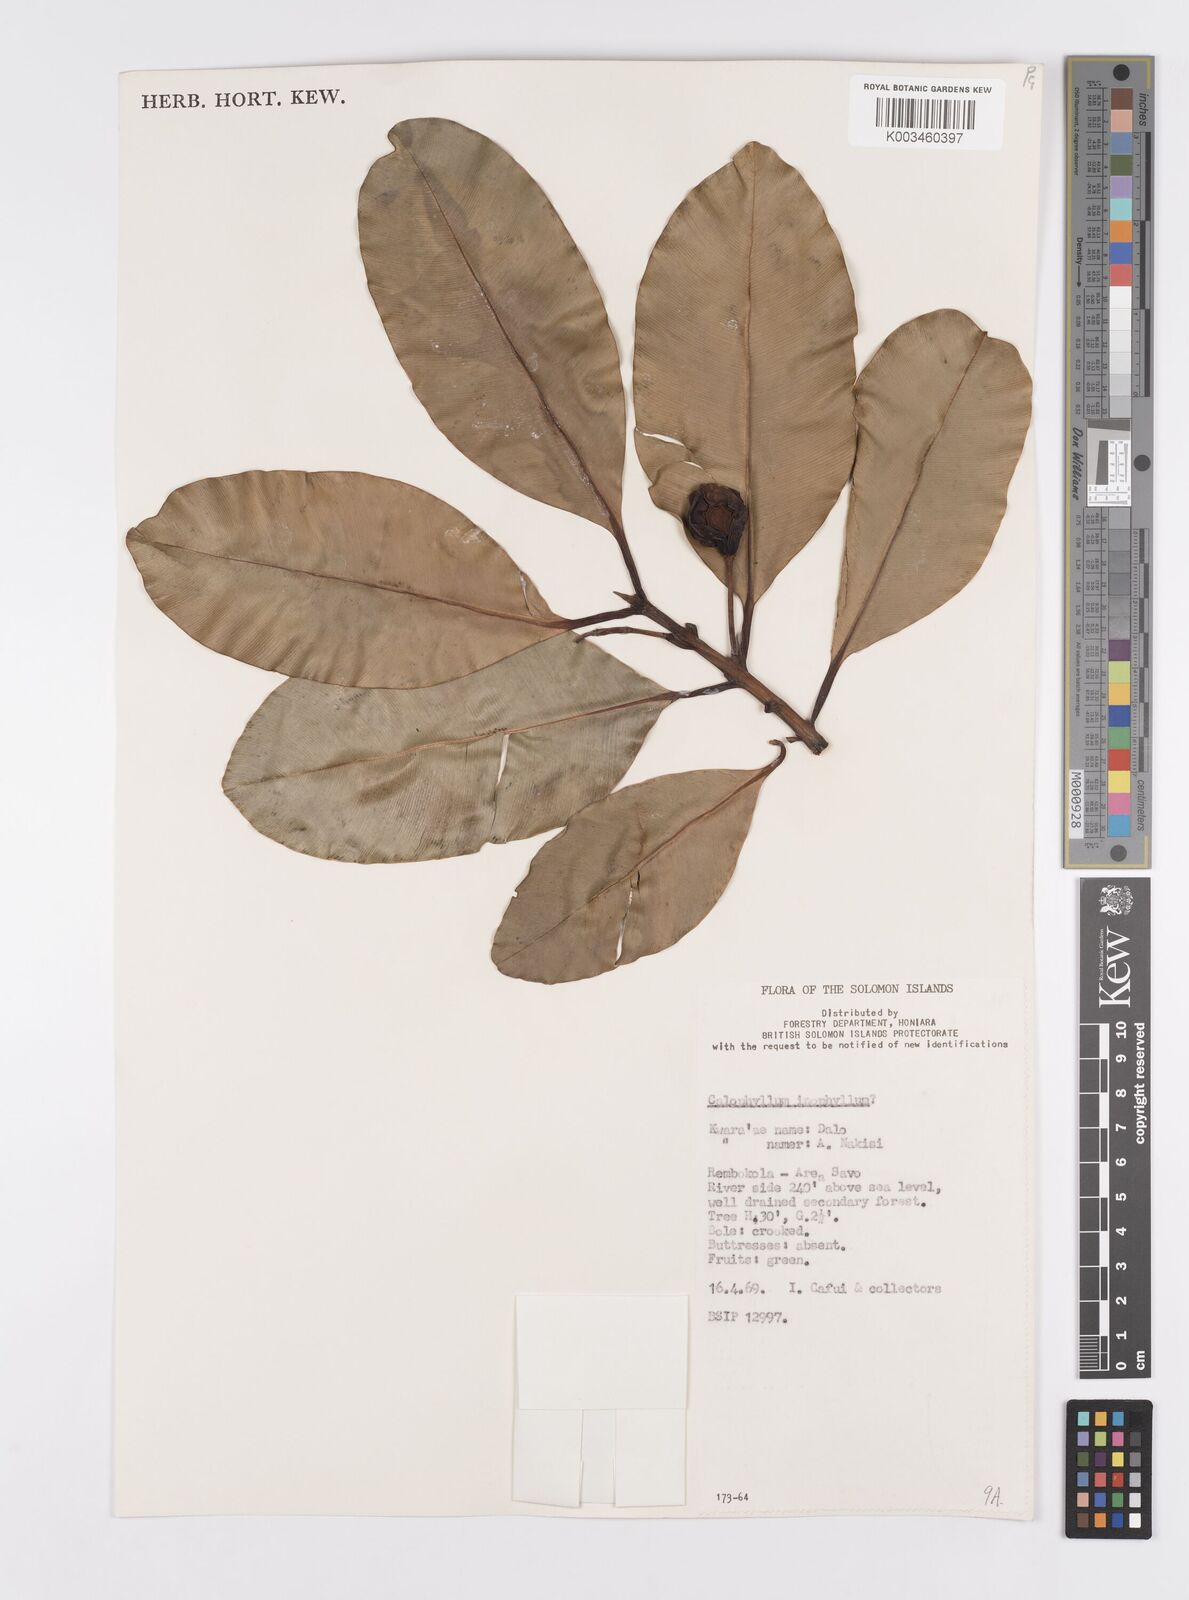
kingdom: Plantae
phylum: Tracheophyta
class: Magnoliopsida
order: Malpighiales
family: Calophyllaceae
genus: Calophyllum
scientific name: Calophyllum inophyllum
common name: Alexandrian laurel
